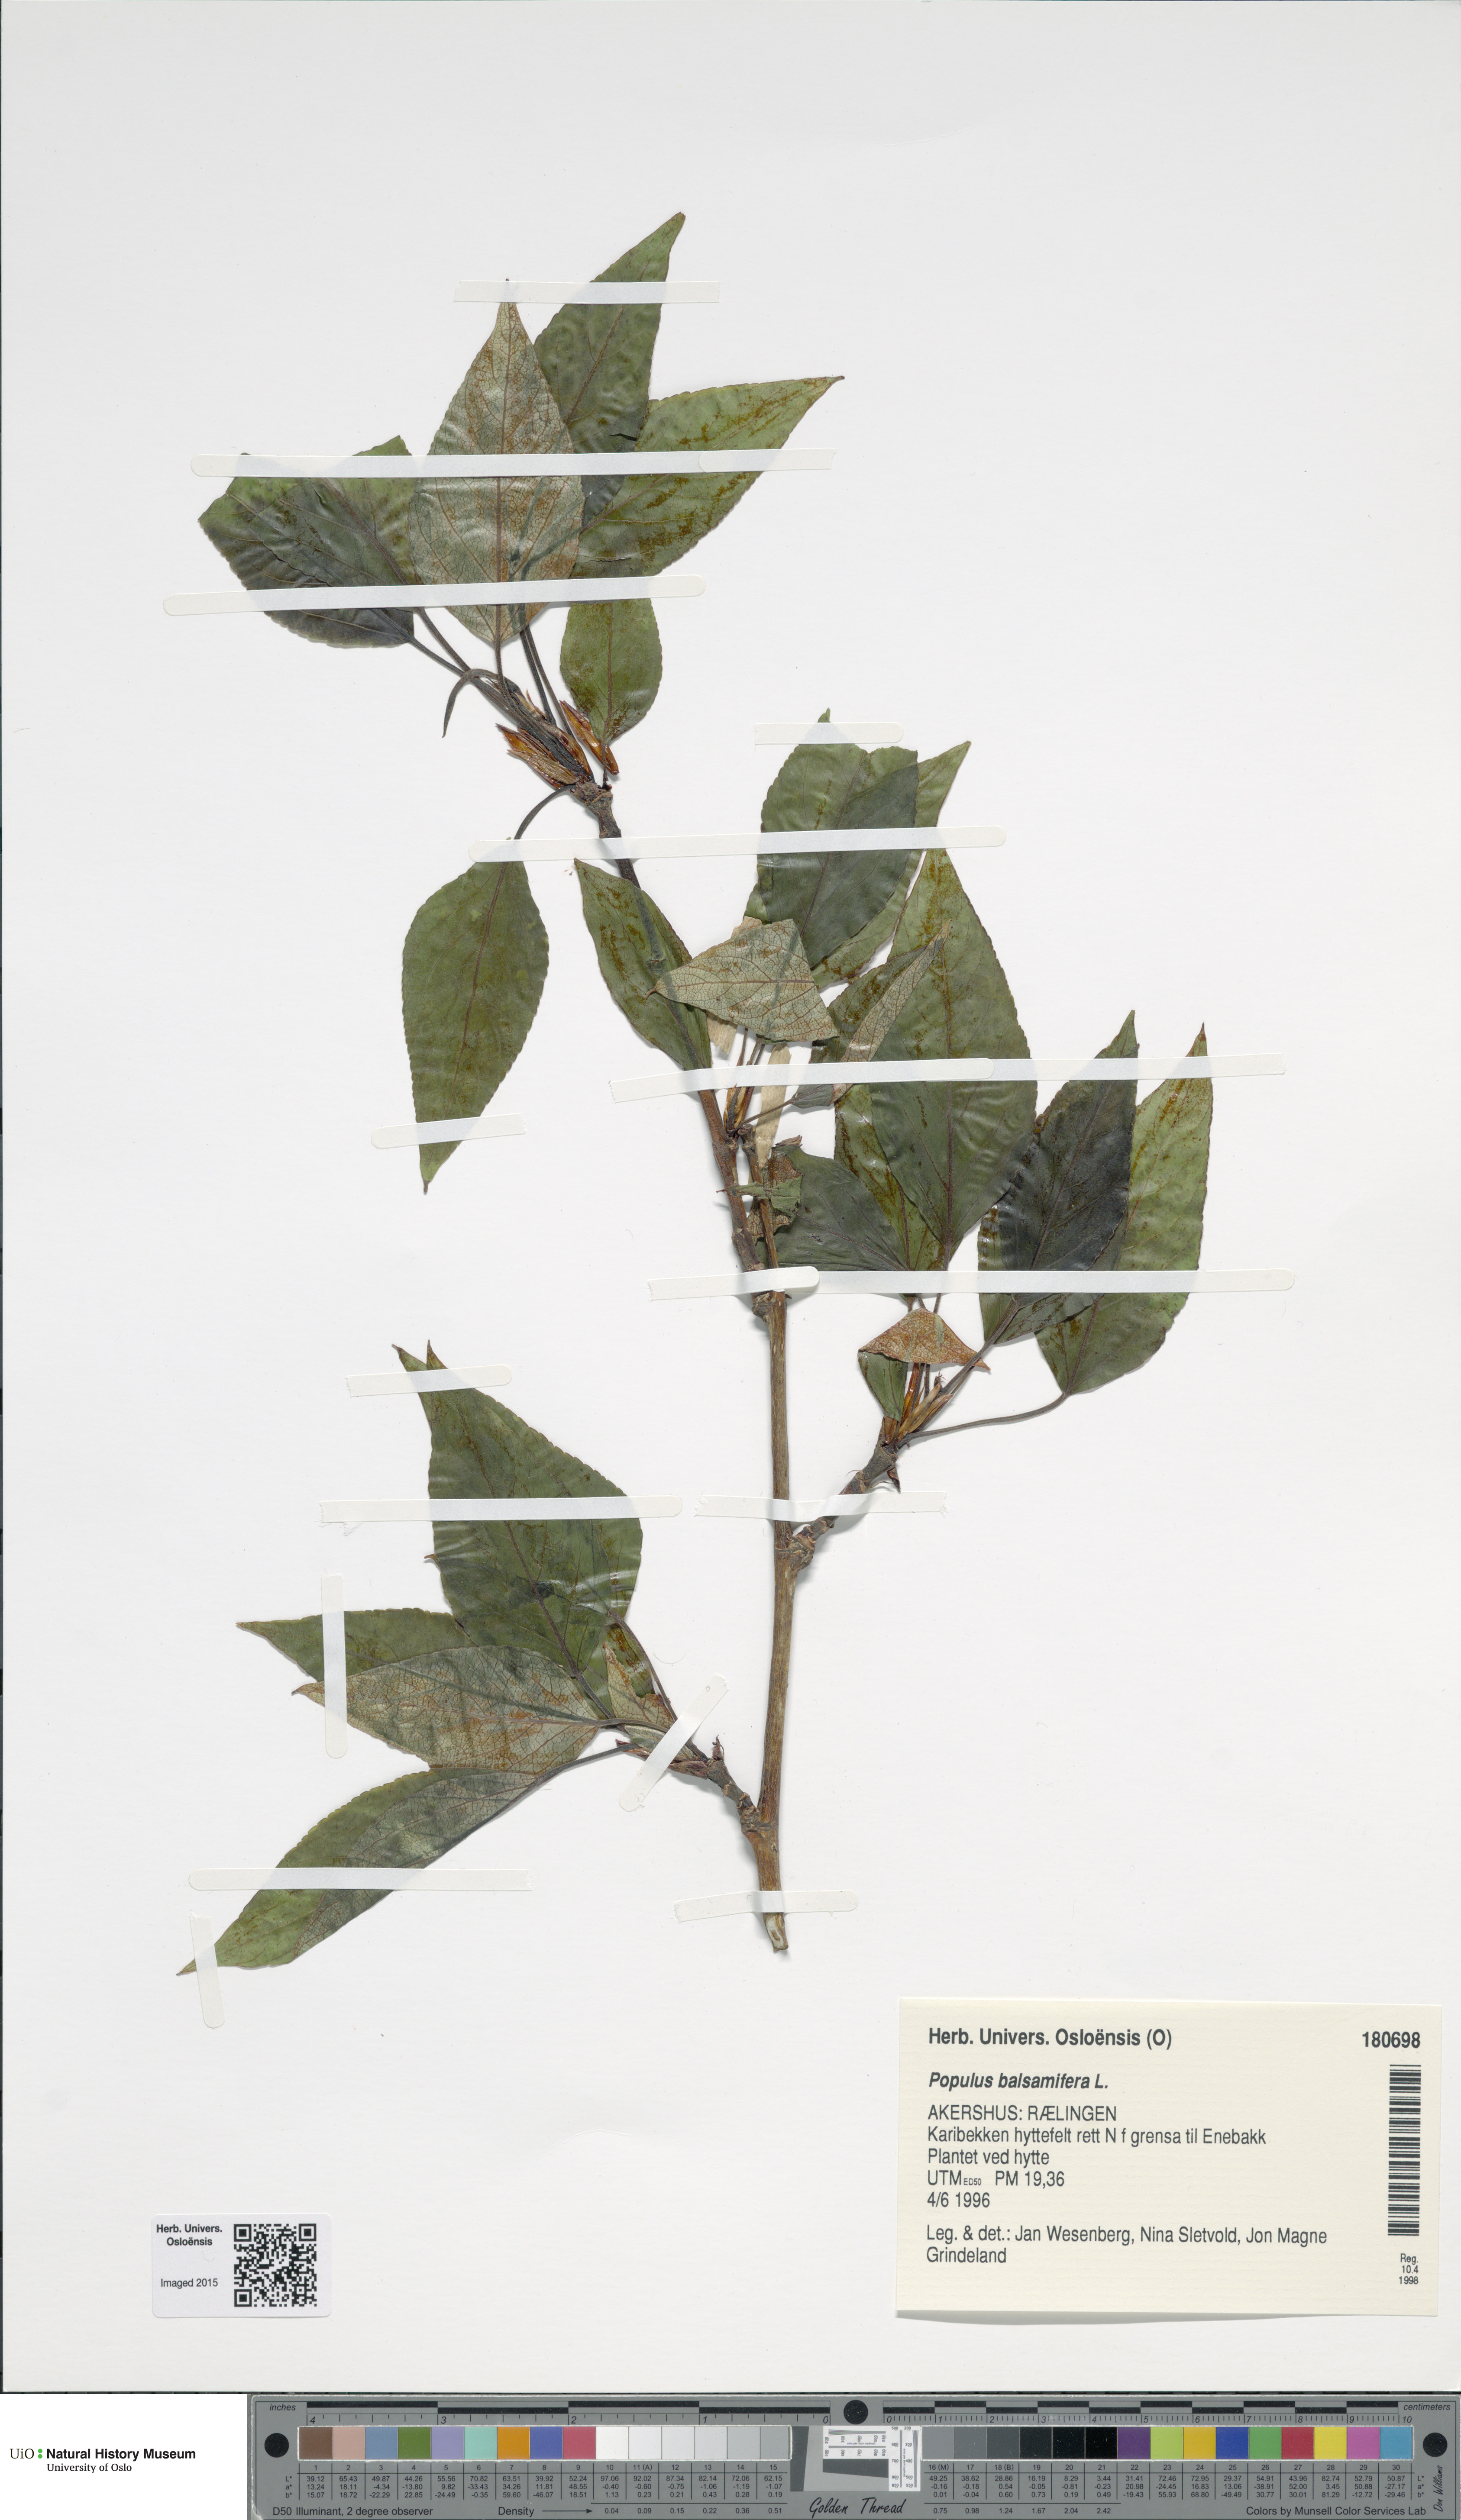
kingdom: Plantae
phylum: Tracheophyta
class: Magnoliopsida
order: Malpighiales
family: Salicaceae
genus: Populus
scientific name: Populus balsamifera
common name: Balsam poplar
